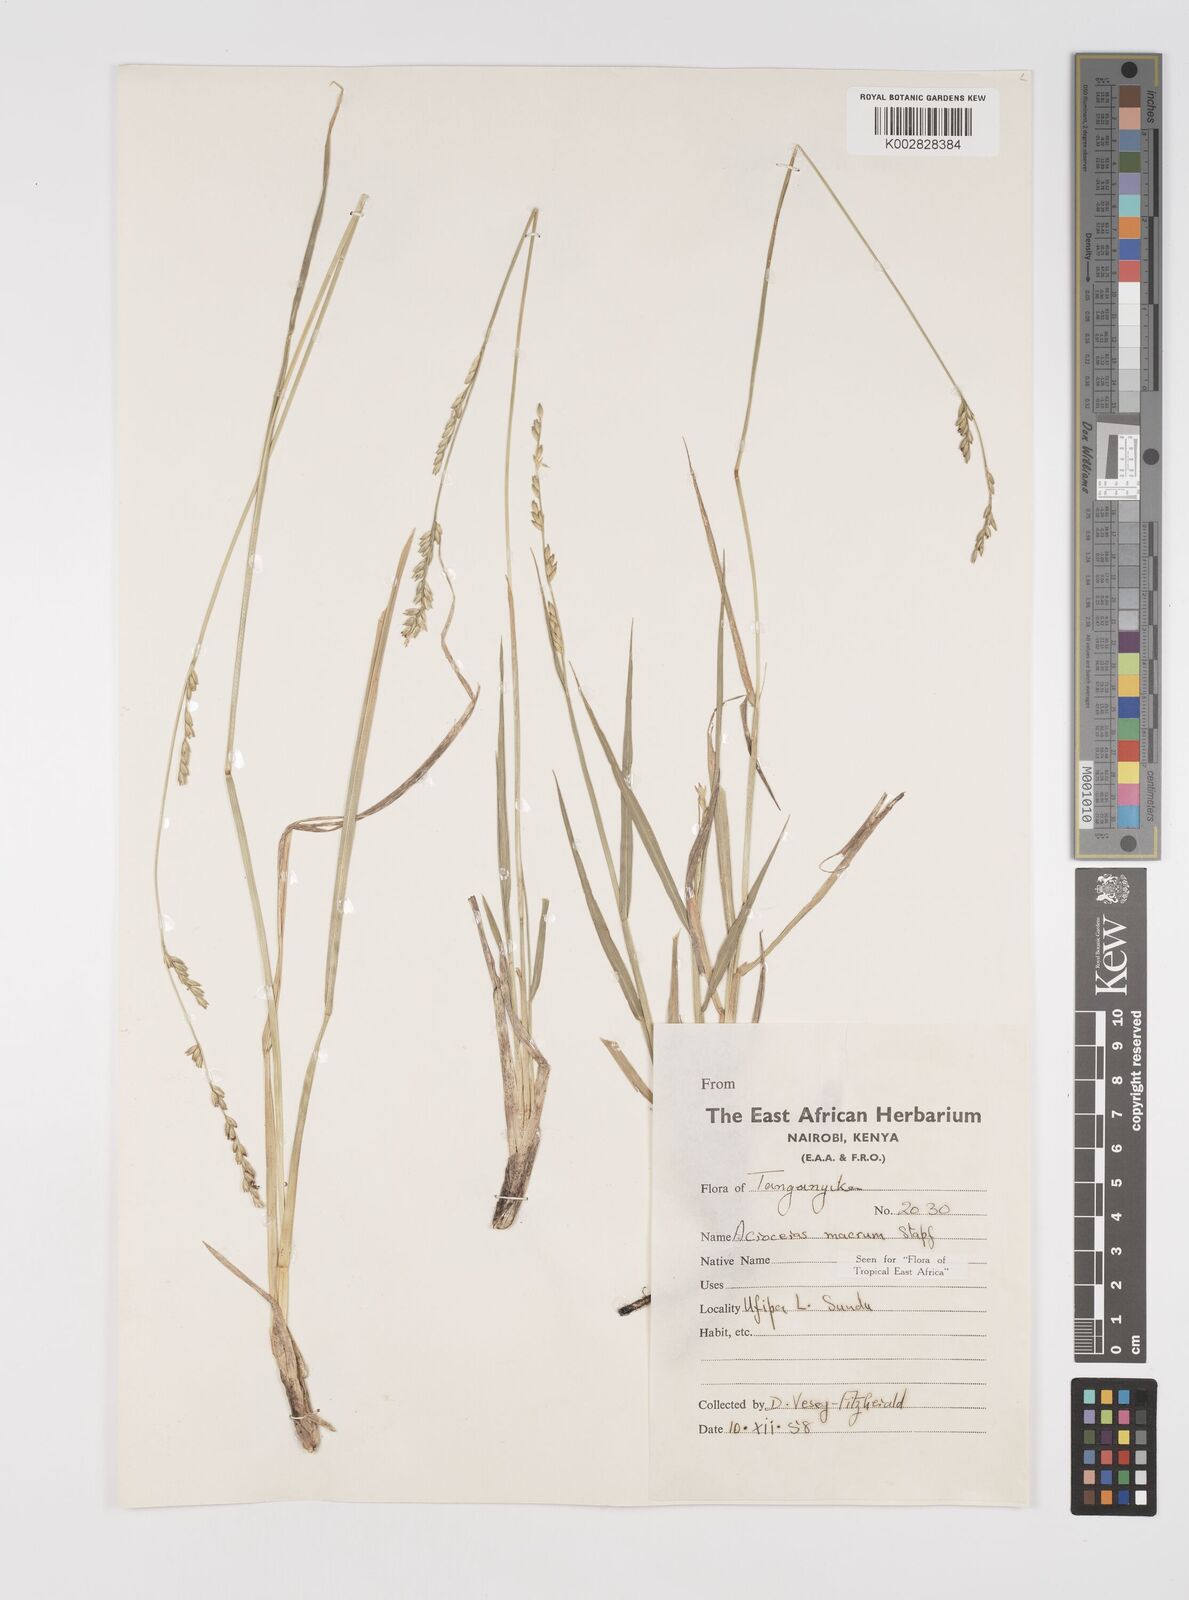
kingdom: Plantae
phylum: Tracheophyta
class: Liliopsida
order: Poales
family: Poaceae
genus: Acroceras
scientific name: Acroceras macrum
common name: Nyl grass
